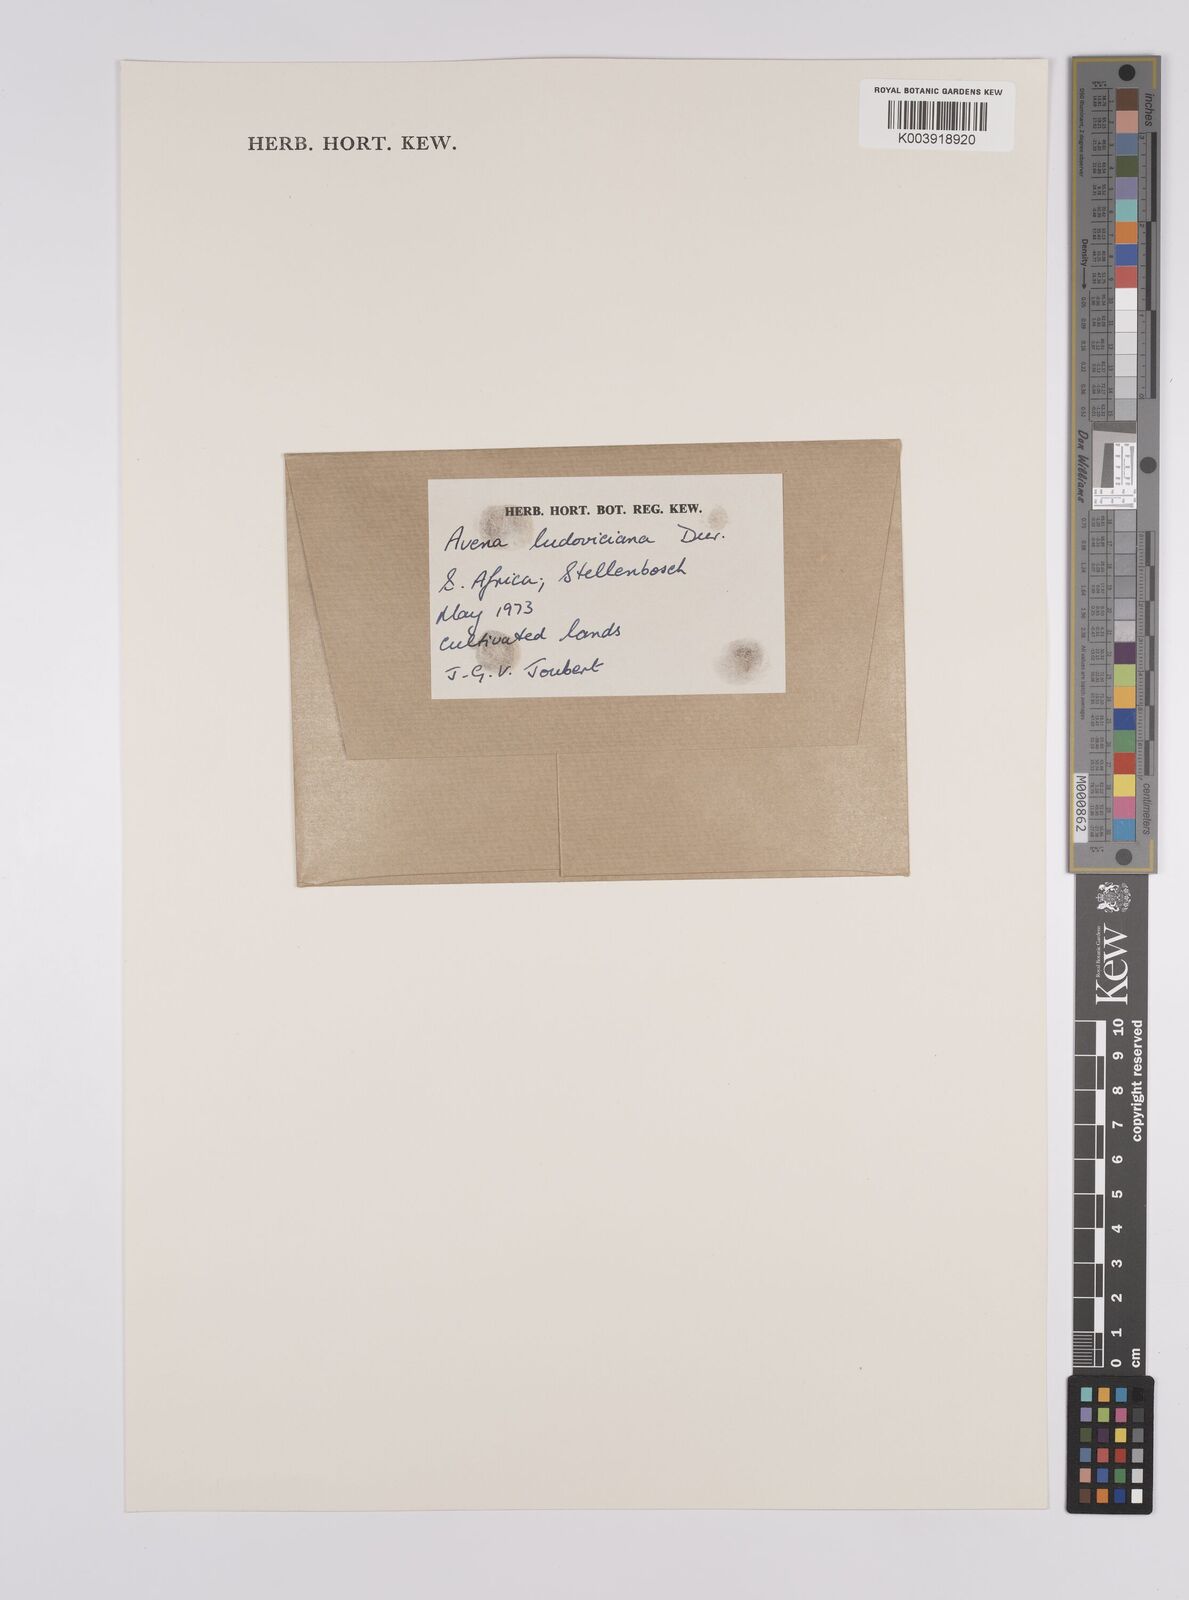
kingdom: Plantae
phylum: Tracheophyta
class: Liliopsida
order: Poales
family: Poaceae
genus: Avena
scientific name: Avena sterilis
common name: Animated oat
